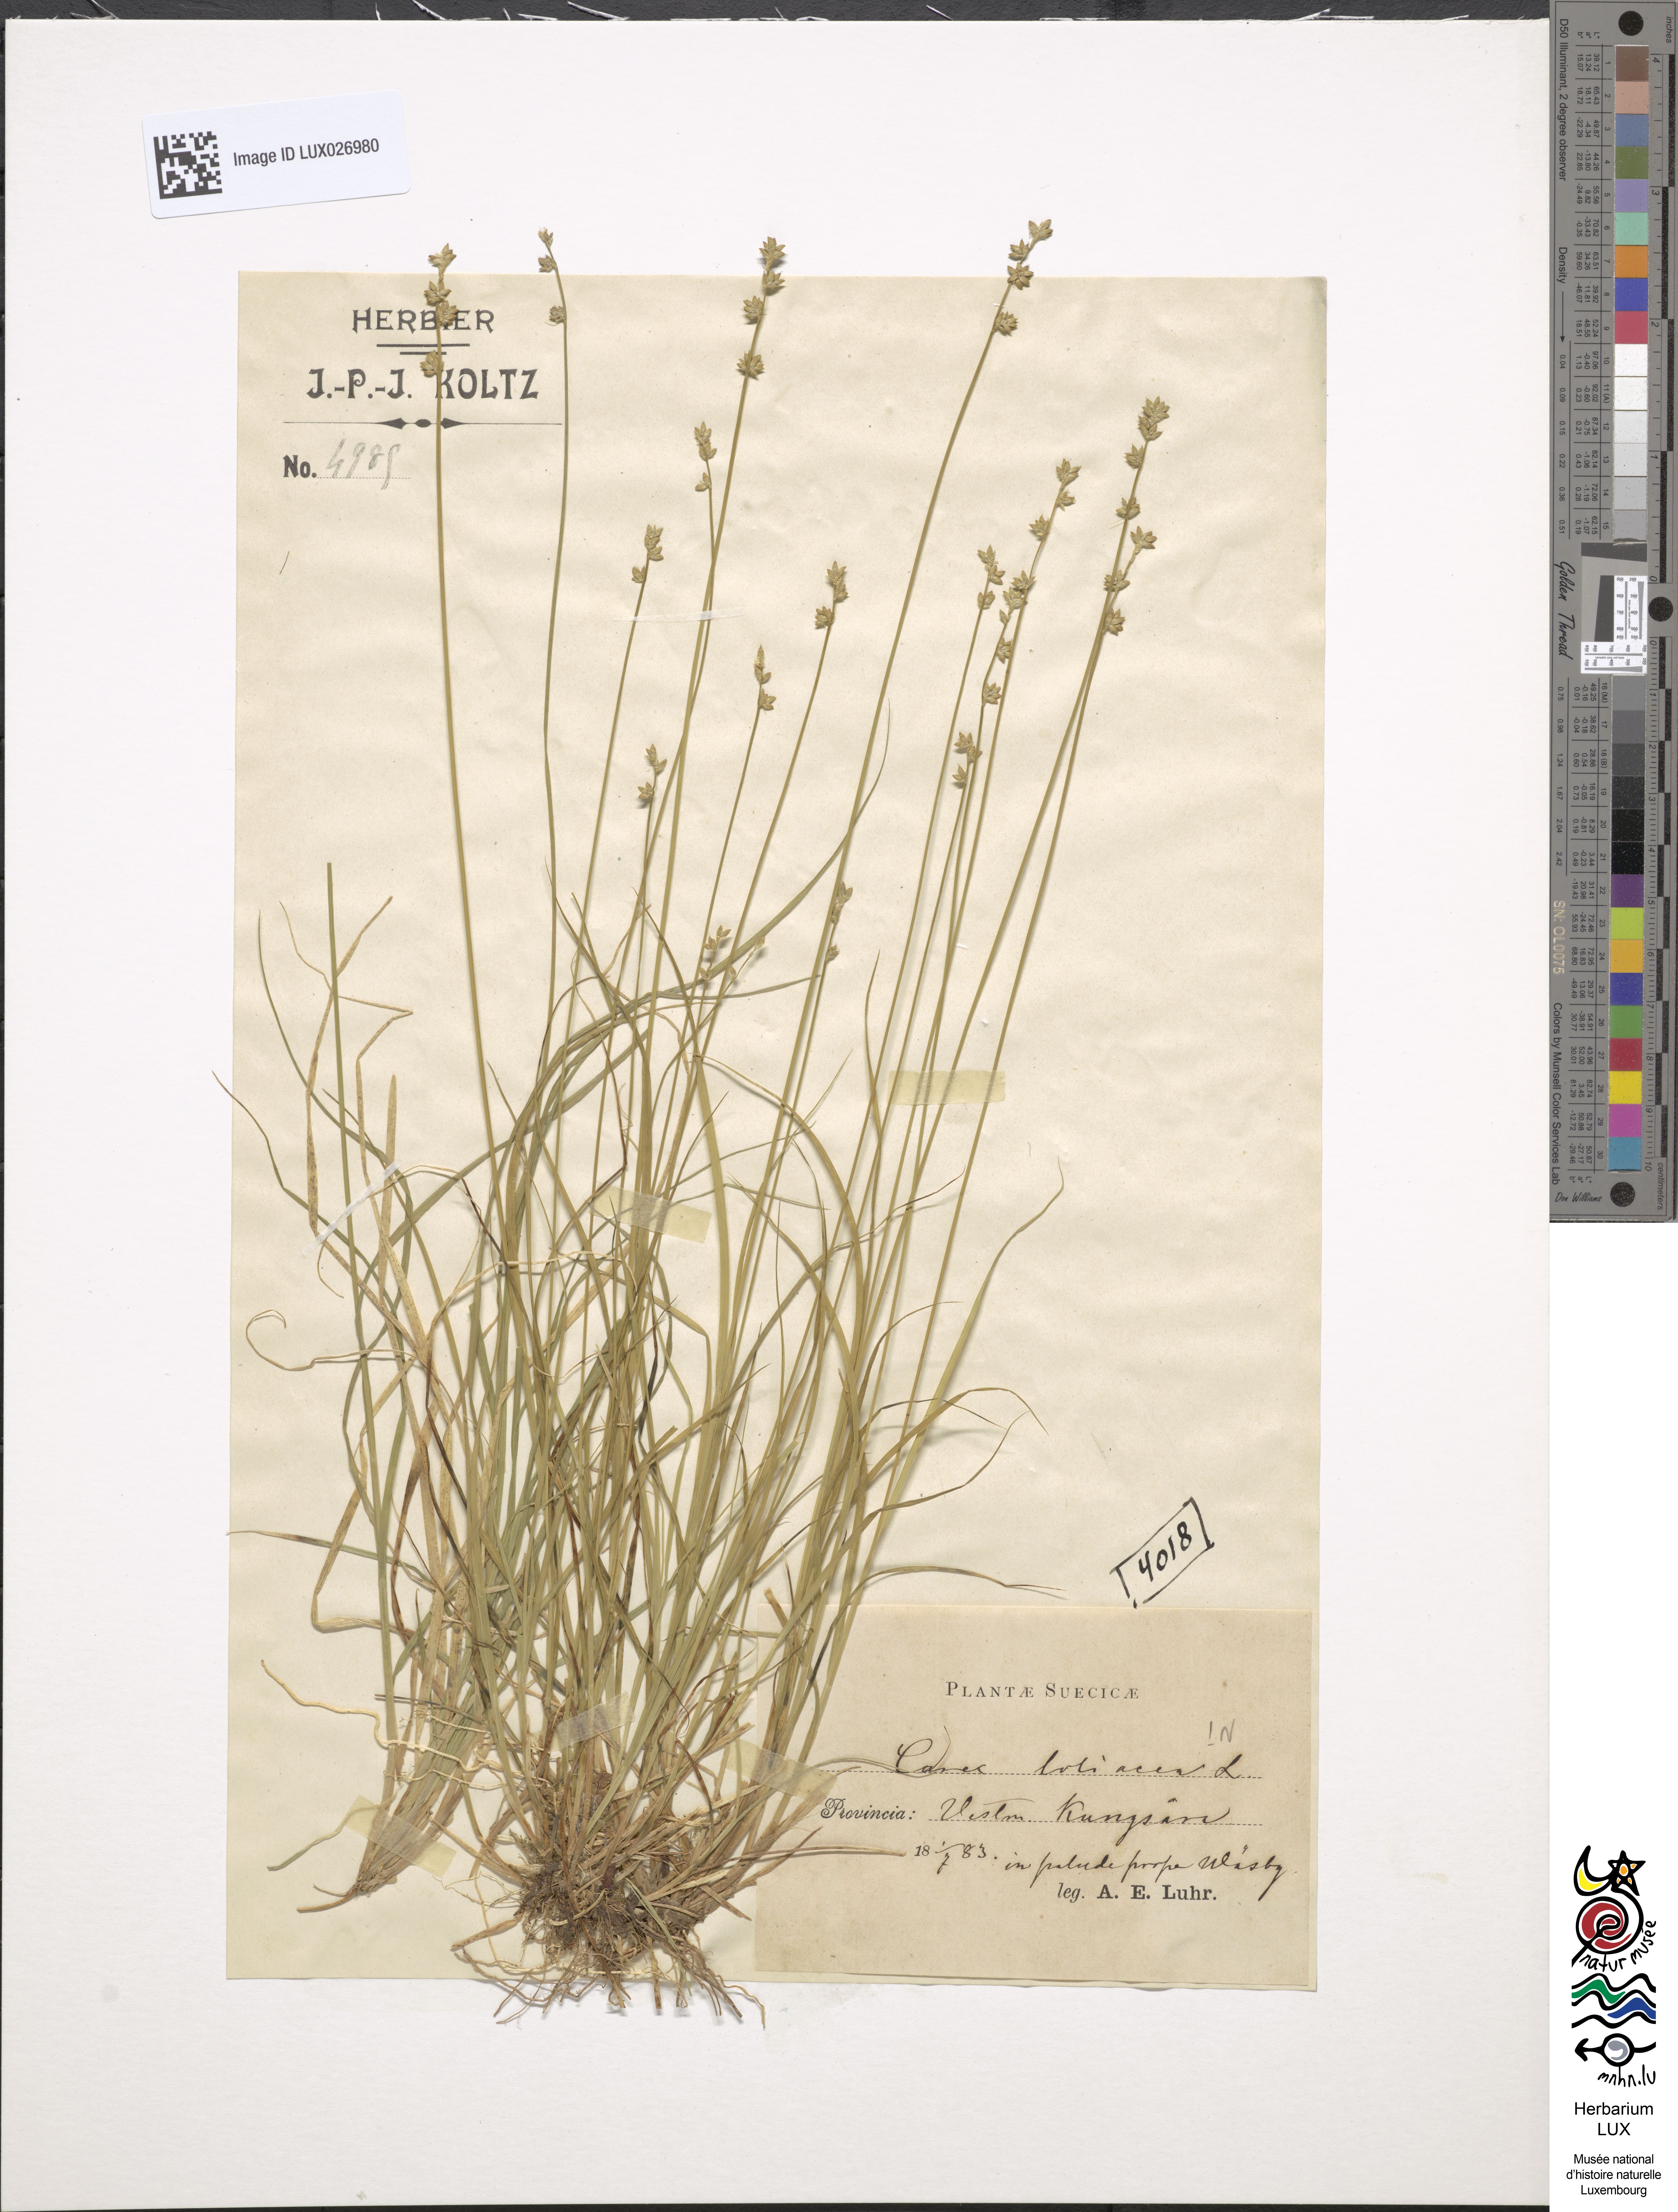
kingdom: Plantae
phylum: Tracheophyta
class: Liliopsida
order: Poales
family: Cyperaceae
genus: Carex
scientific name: Carex loliacea
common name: Ryegrass sedge
